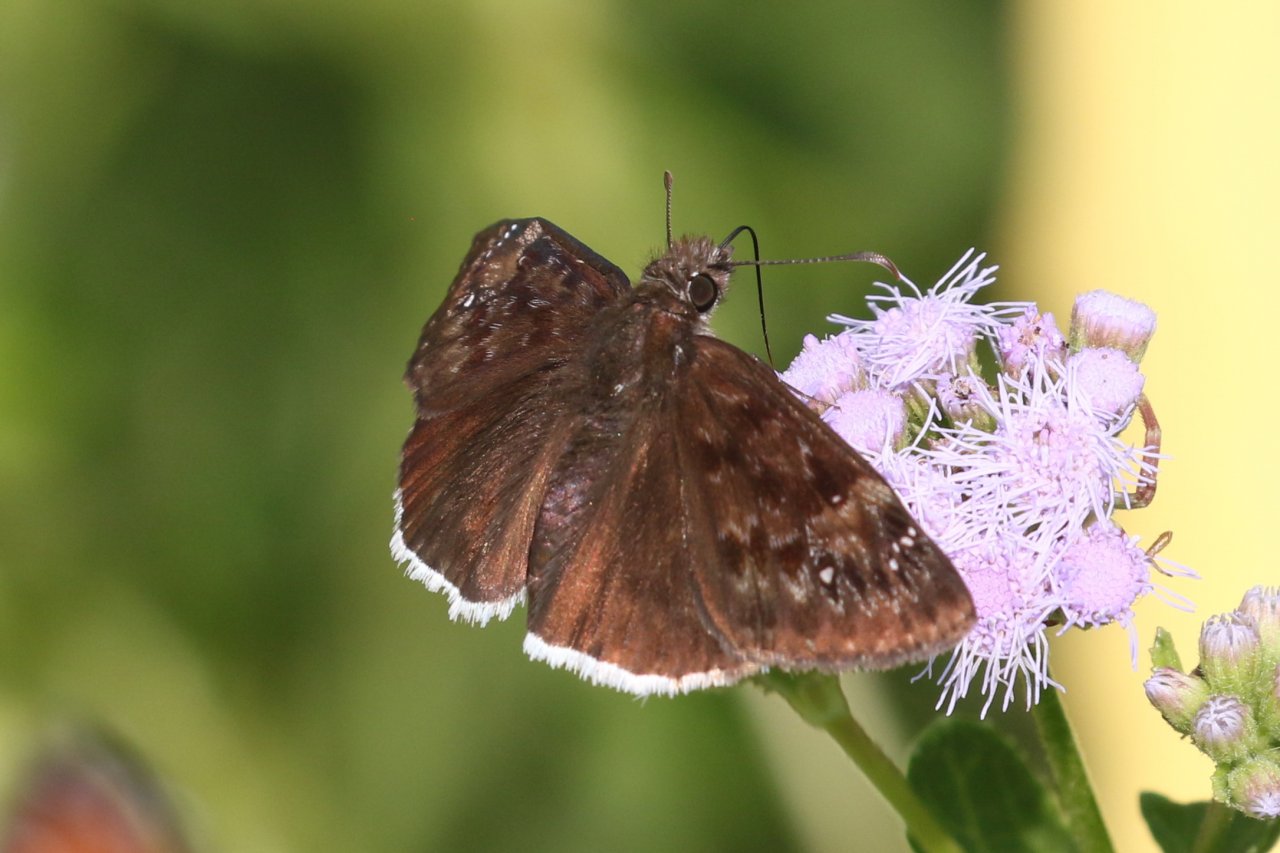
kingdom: Animalia
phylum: Arthropoda
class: Insecta
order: Lepidoptera
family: Hesperiidae
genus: Erynnis
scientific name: Erynnis tristis
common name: Mournful Duskywing
